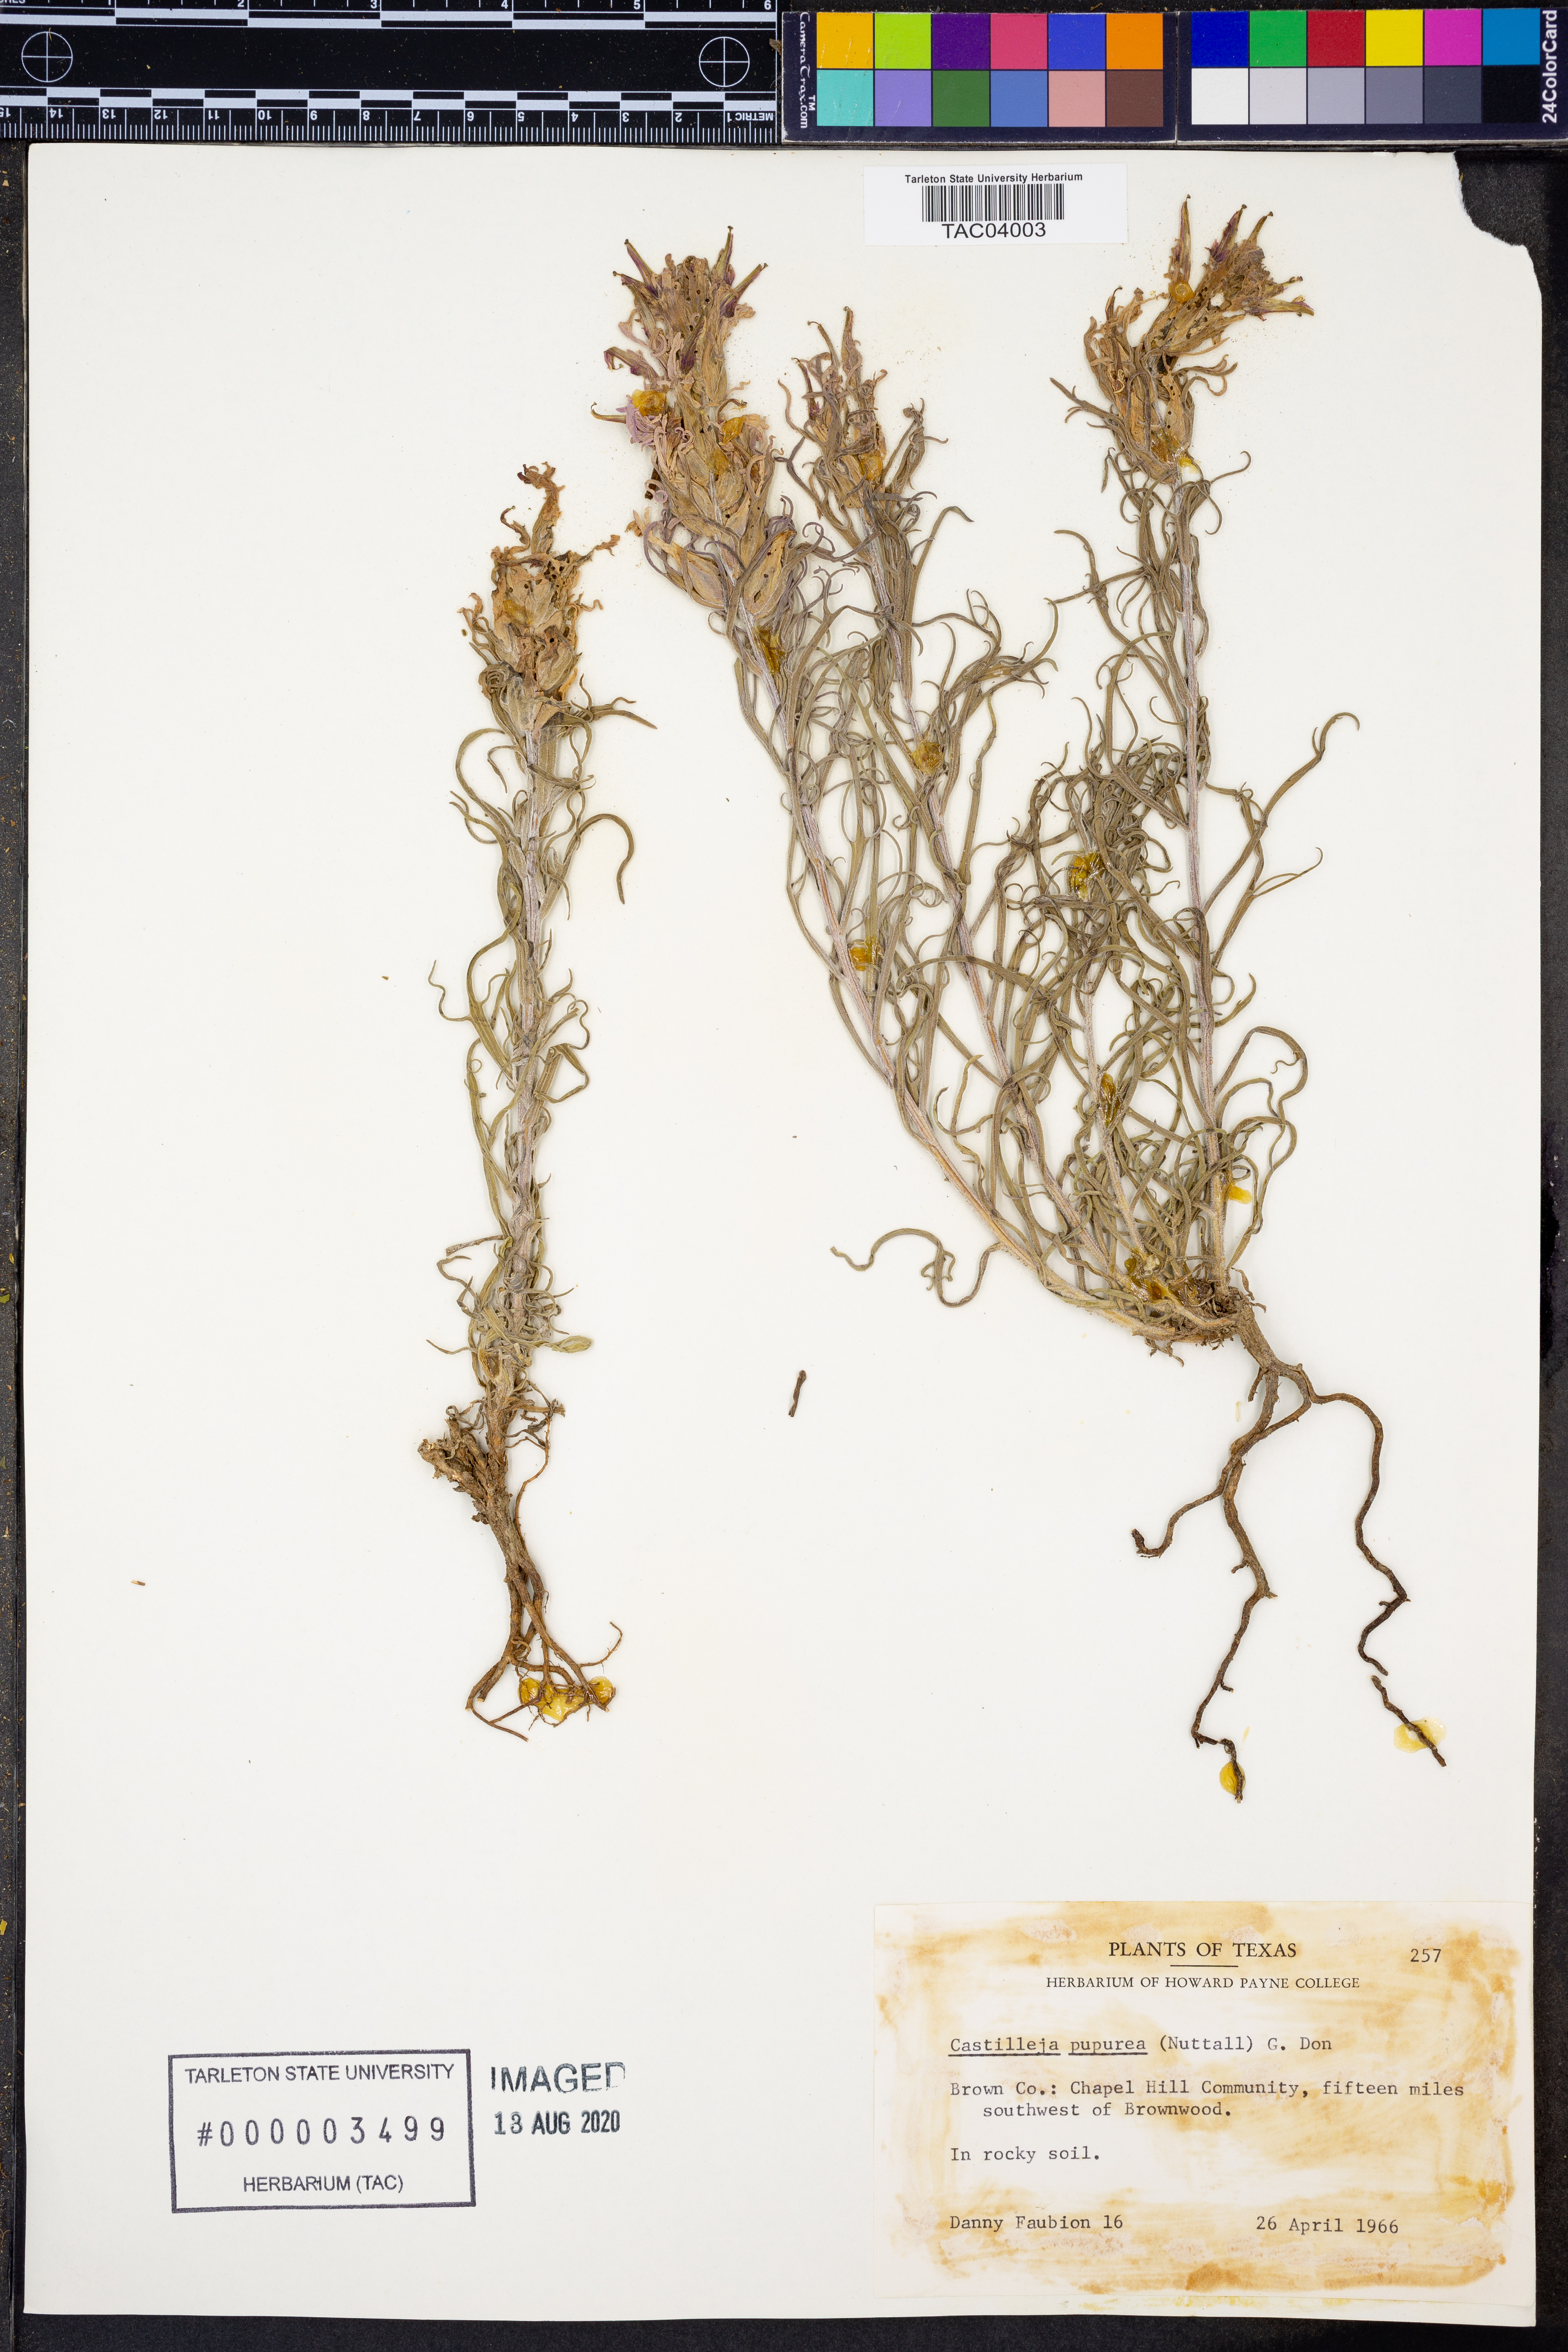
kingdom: Plantae
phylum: Tracheophyta
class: Magnoliopsida
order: Lamiales
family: Orobanchaceae
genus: Castilleja
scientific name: Castilleja purpurea
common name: Plains paintbrush
